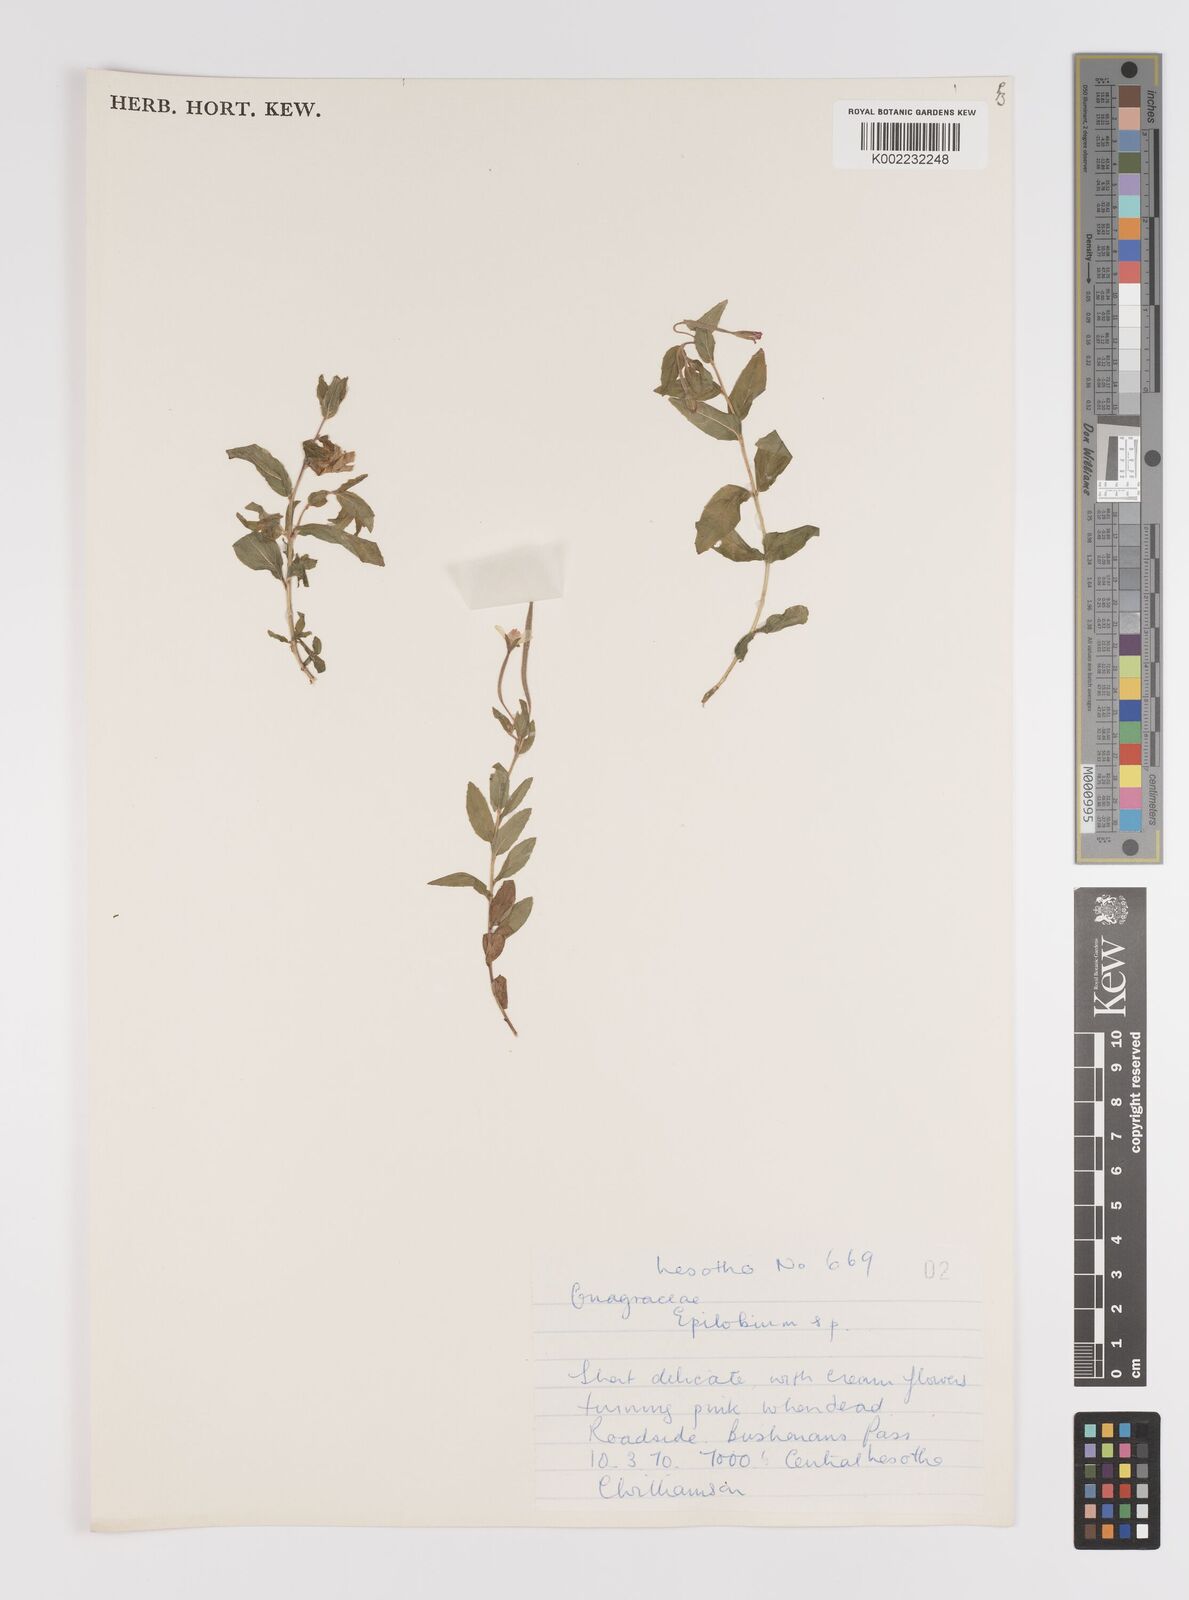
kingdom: Plantae
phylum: Tracheophyta
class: Magnoliopsida
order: Myrtales
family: Onagraceae
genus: Epilobium
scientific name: Epilobium
